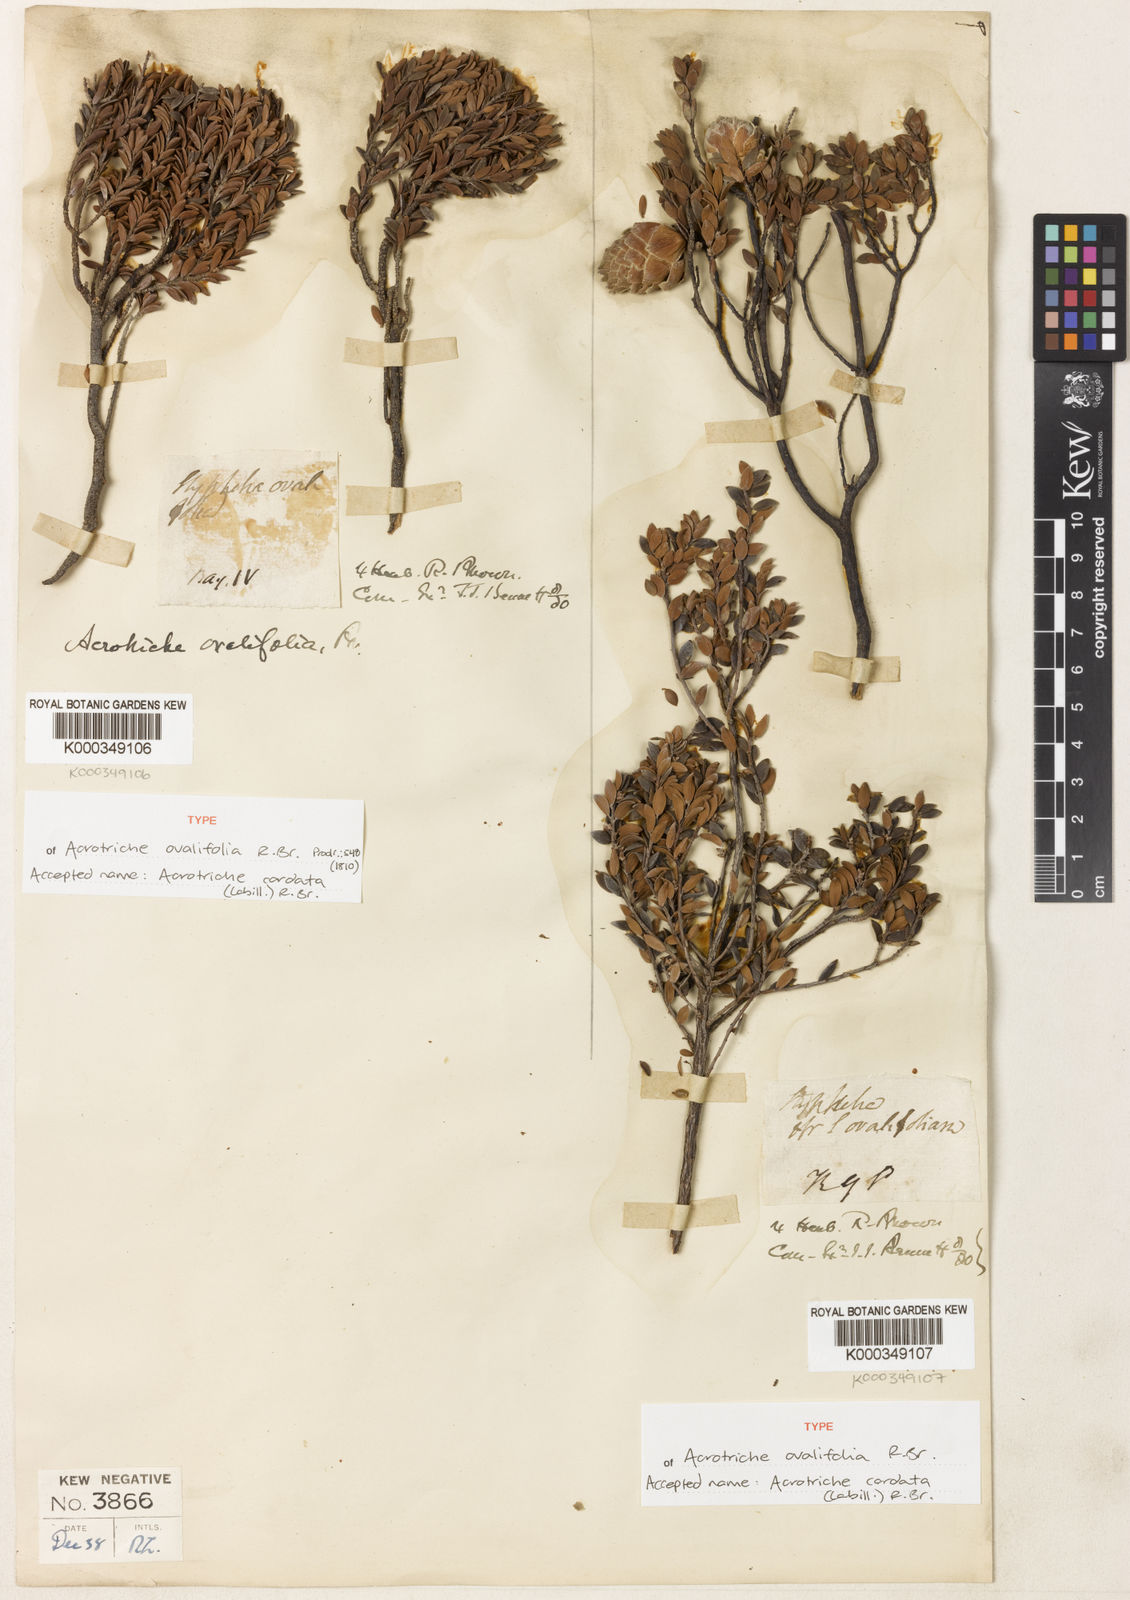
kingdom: Plantae
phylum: Tracheophyta
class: Magnoliopsida
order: Ericales
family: Ericaceae
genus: Acrotriche
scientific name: Acrotriche cordata
